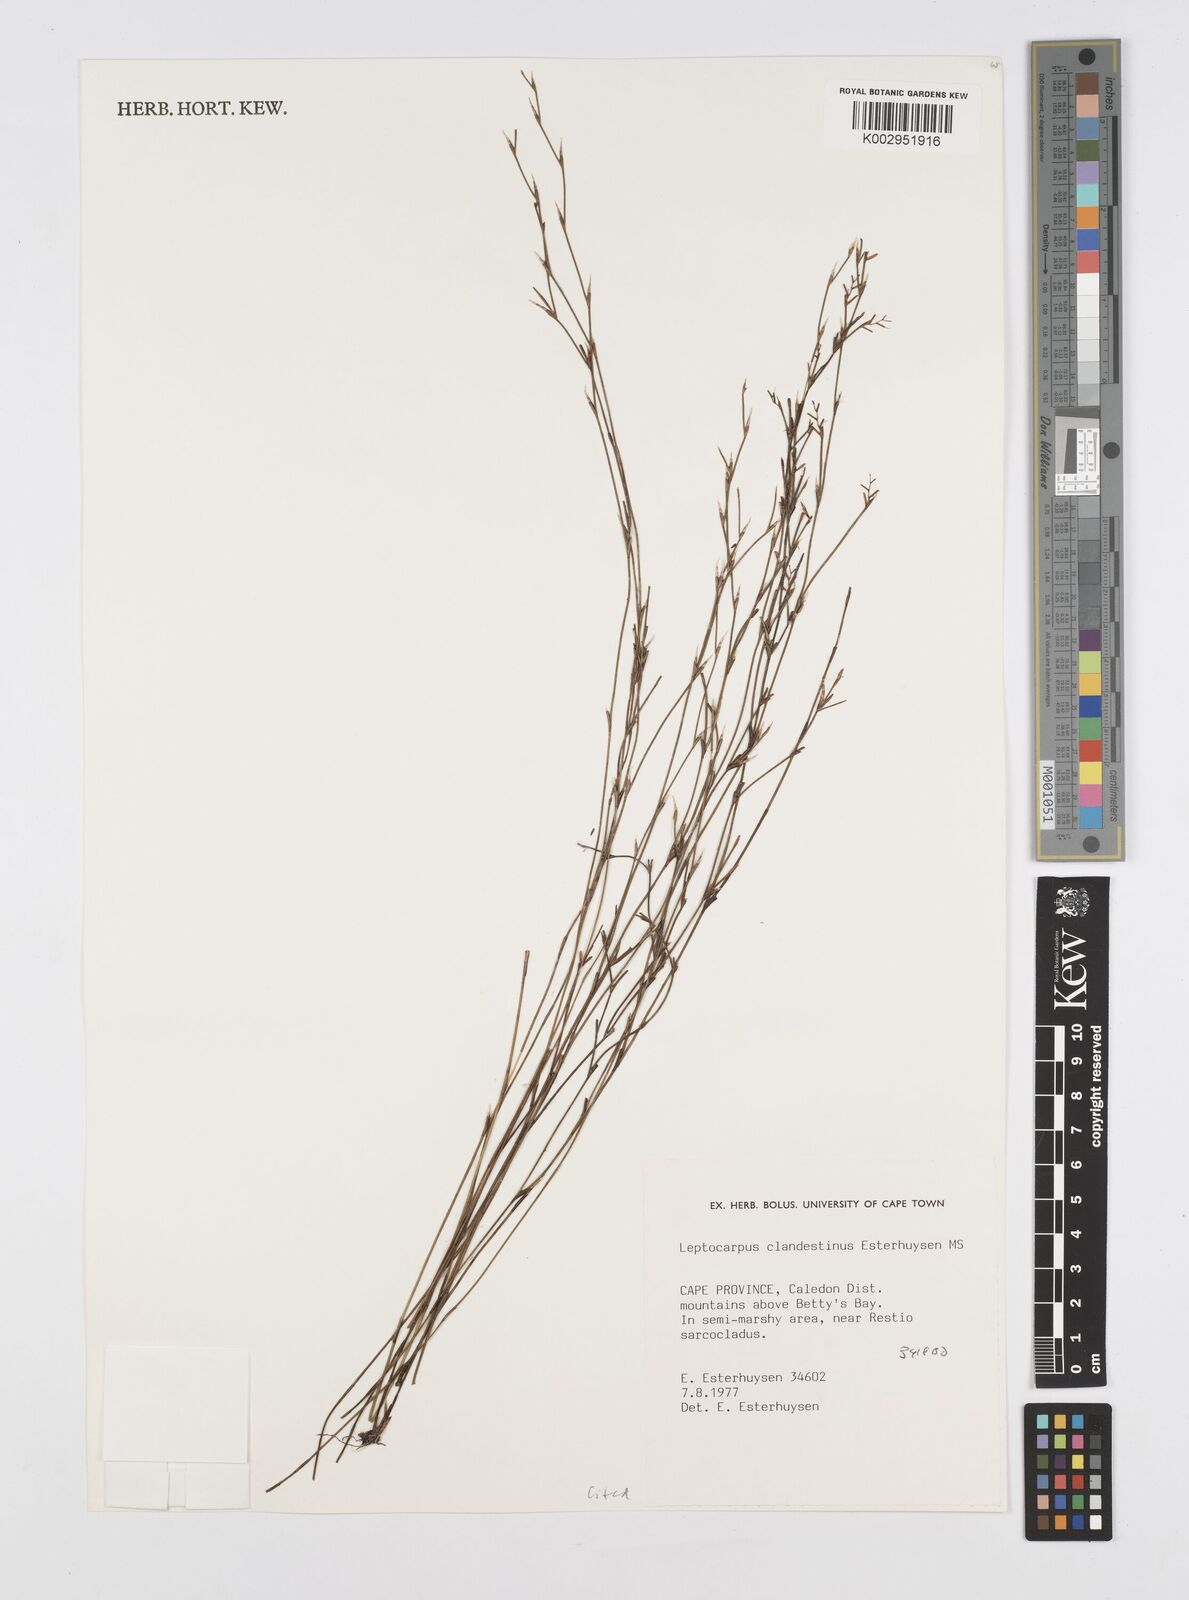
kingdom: Plantae
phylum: Tracheophyta
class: Liliopsida
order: Poales
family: Restionaceae
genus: Restio
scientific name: Restio clandestinus
